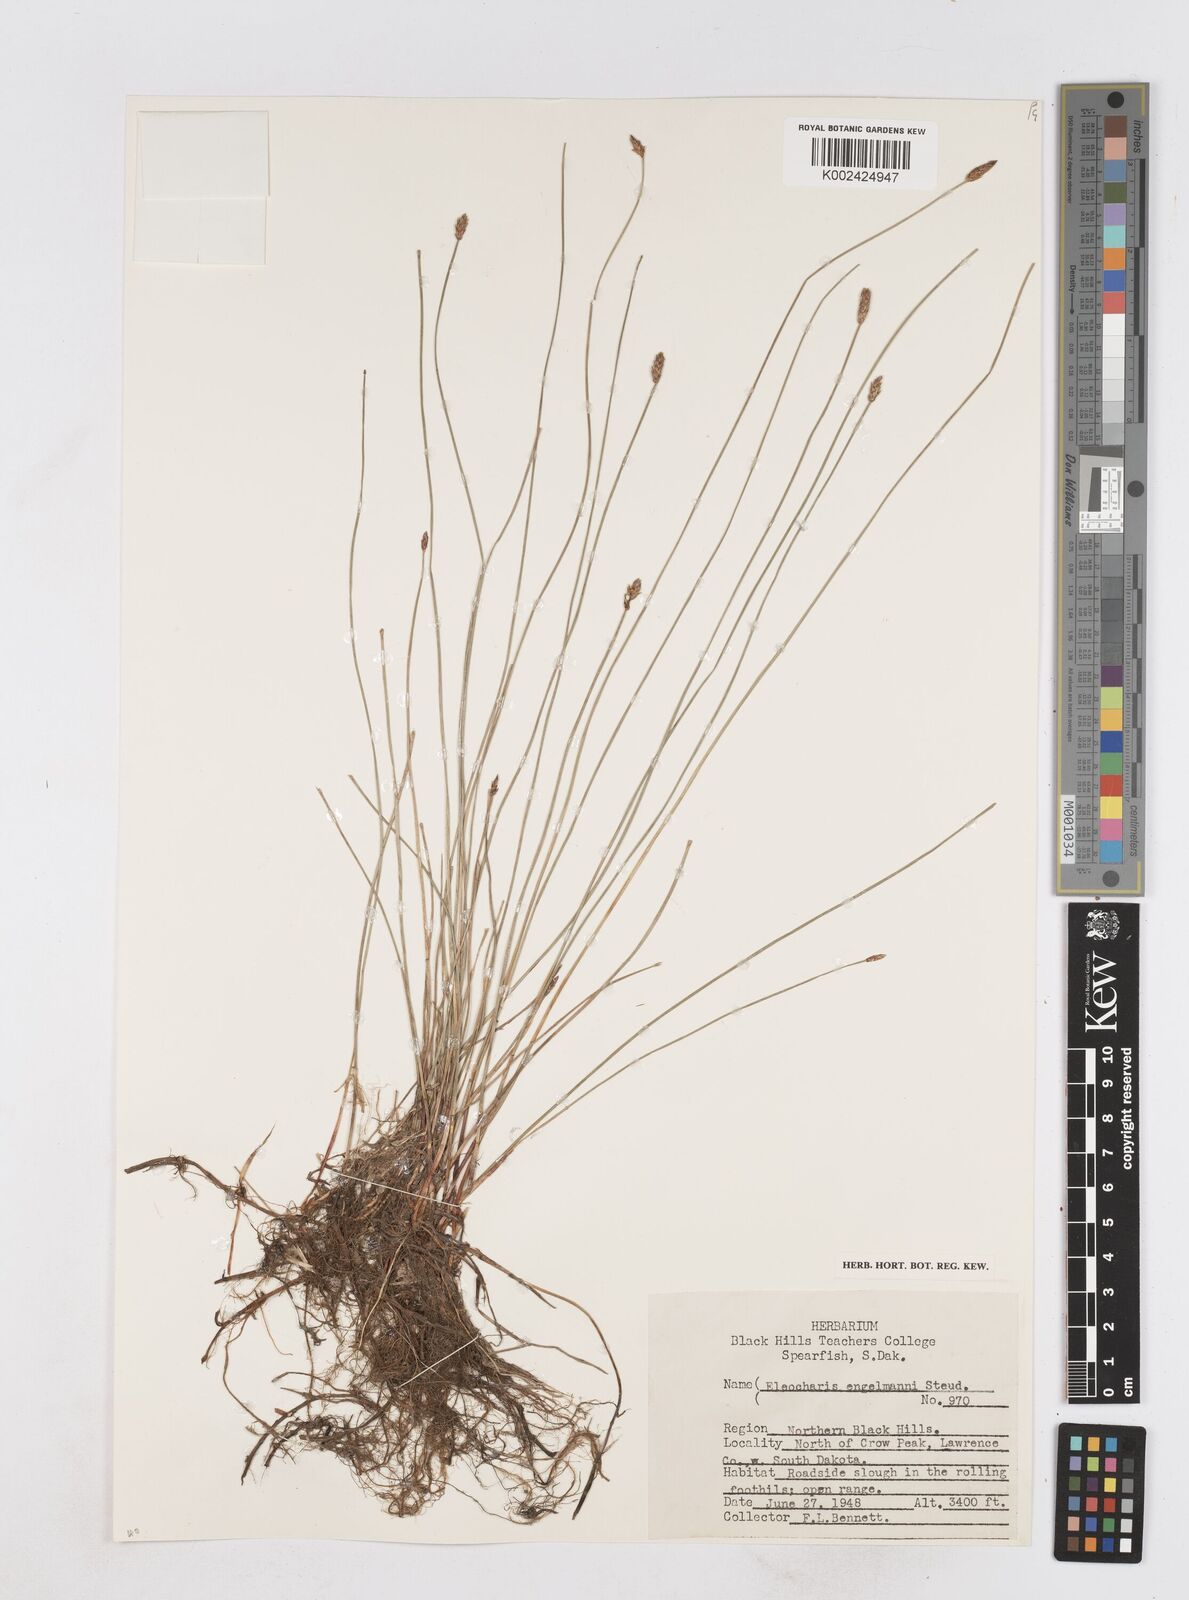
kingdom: Plantae
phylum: Tracheophyta
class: Liliopsida
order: Poales
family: Cyperaceae
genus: Eleocharis
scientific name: Eleocharis engelmannii
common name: Engelmann's spikerush
